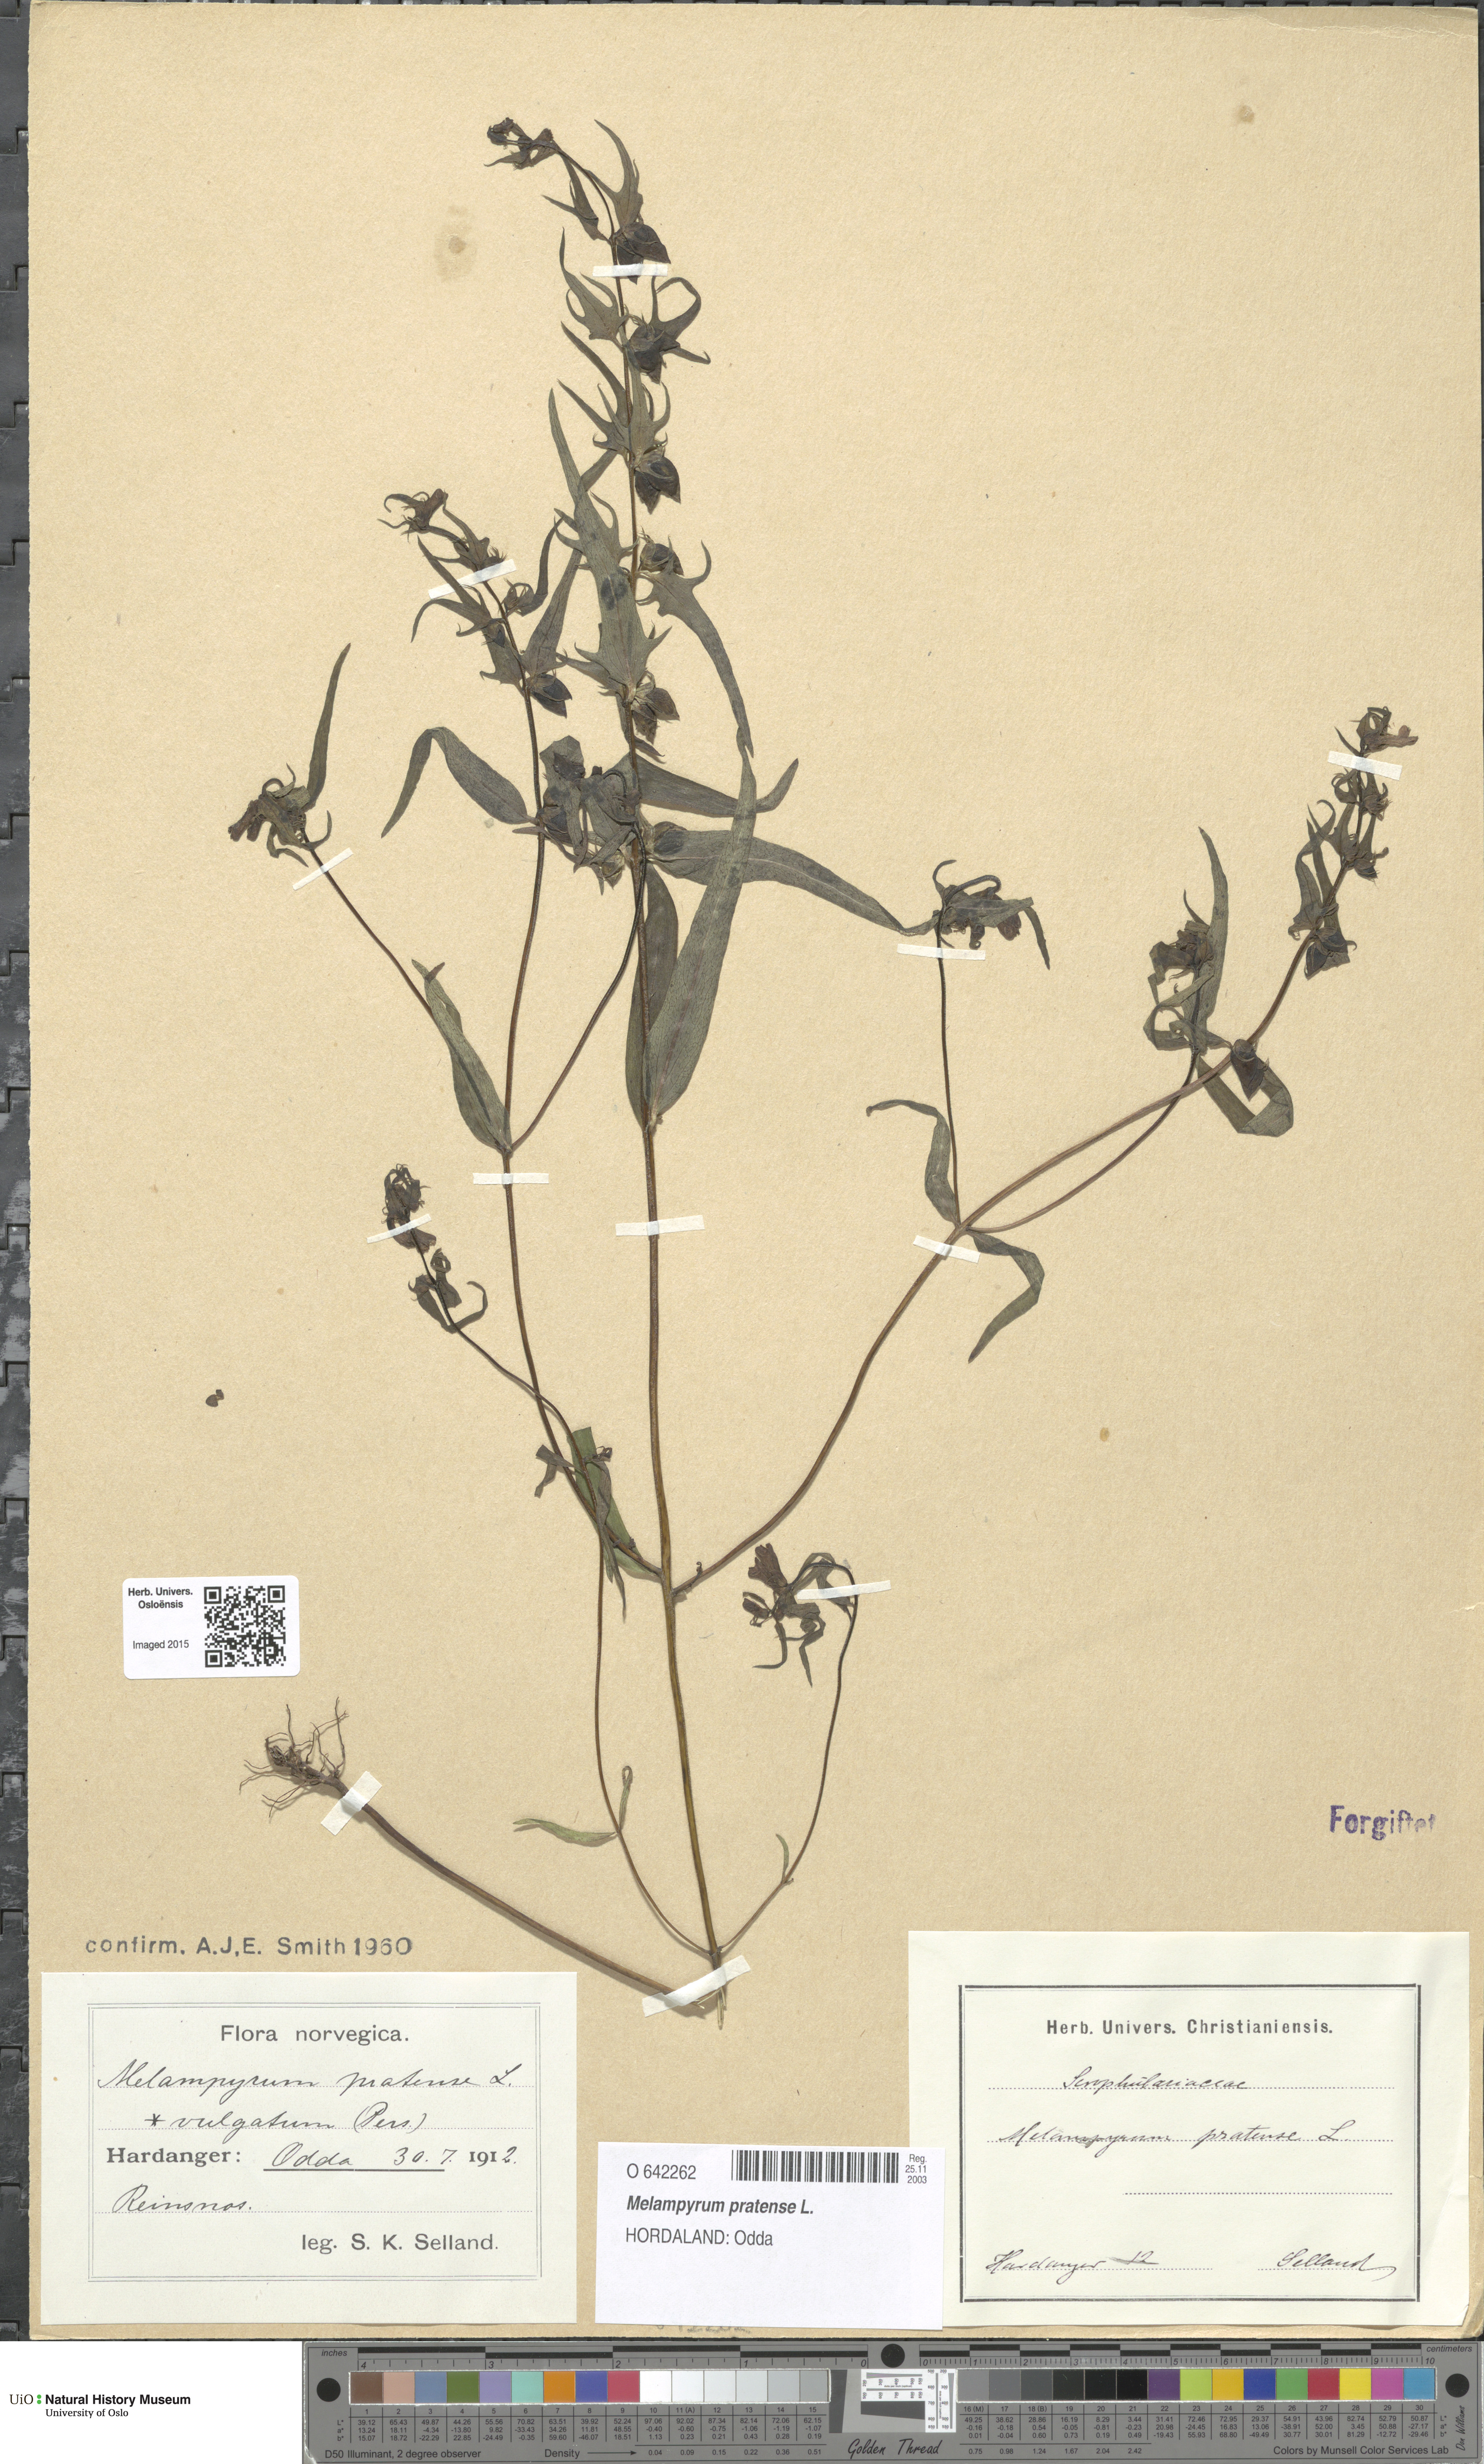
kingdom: Plantae
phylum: Tracheophyta
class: Magnoliopsida
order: Lamiales
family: Orobanchaceae
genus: Melampyrum
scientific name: Melampyrum pratense
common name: Common cow-wheat
